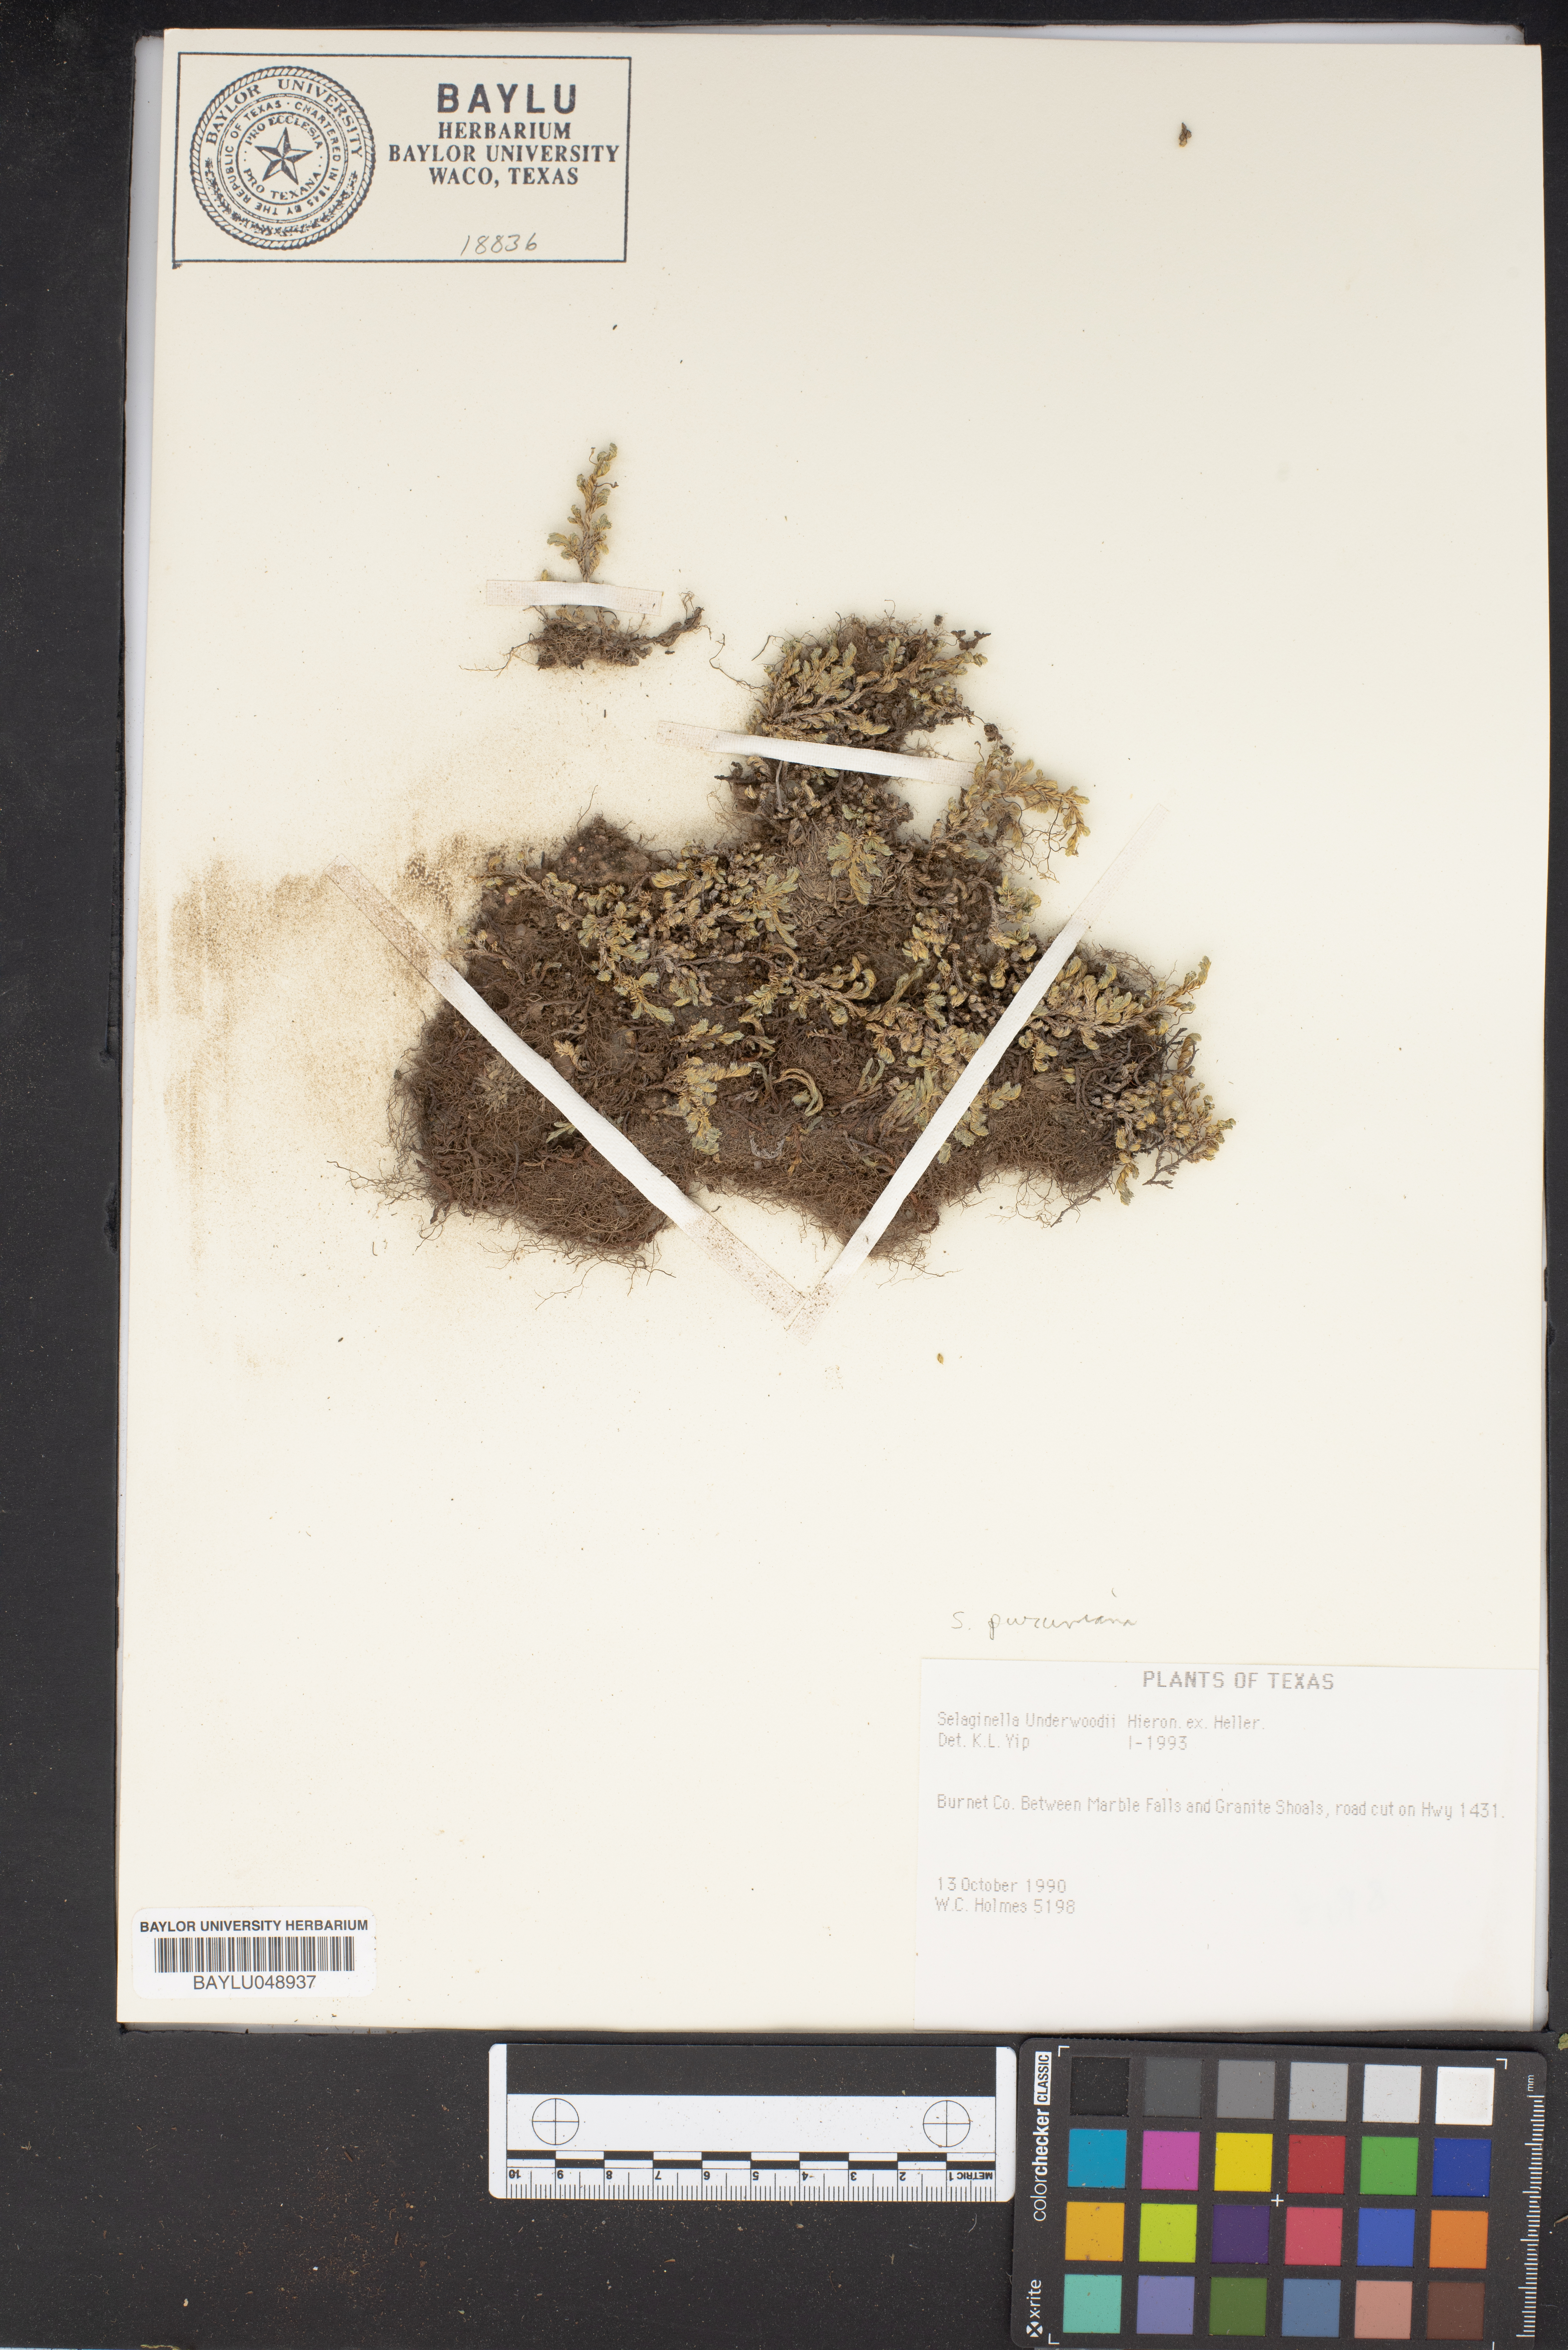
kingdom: Plantae
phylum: Tracheophyta
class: Lycopodiopsida
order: Selaginellales
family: Selaginellaceae
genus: Selaginella
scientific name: Selaginella underwoodii
